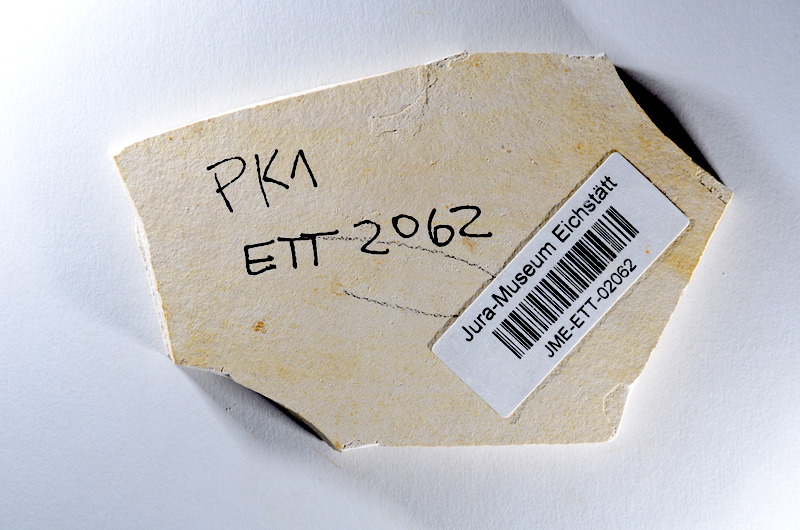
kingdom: Animalia
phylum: Chordata
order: Salmoniformes
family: Orthogonikleithridae
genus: Orthogonikleithrus
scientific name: Orthogonikleithrus hoelli
